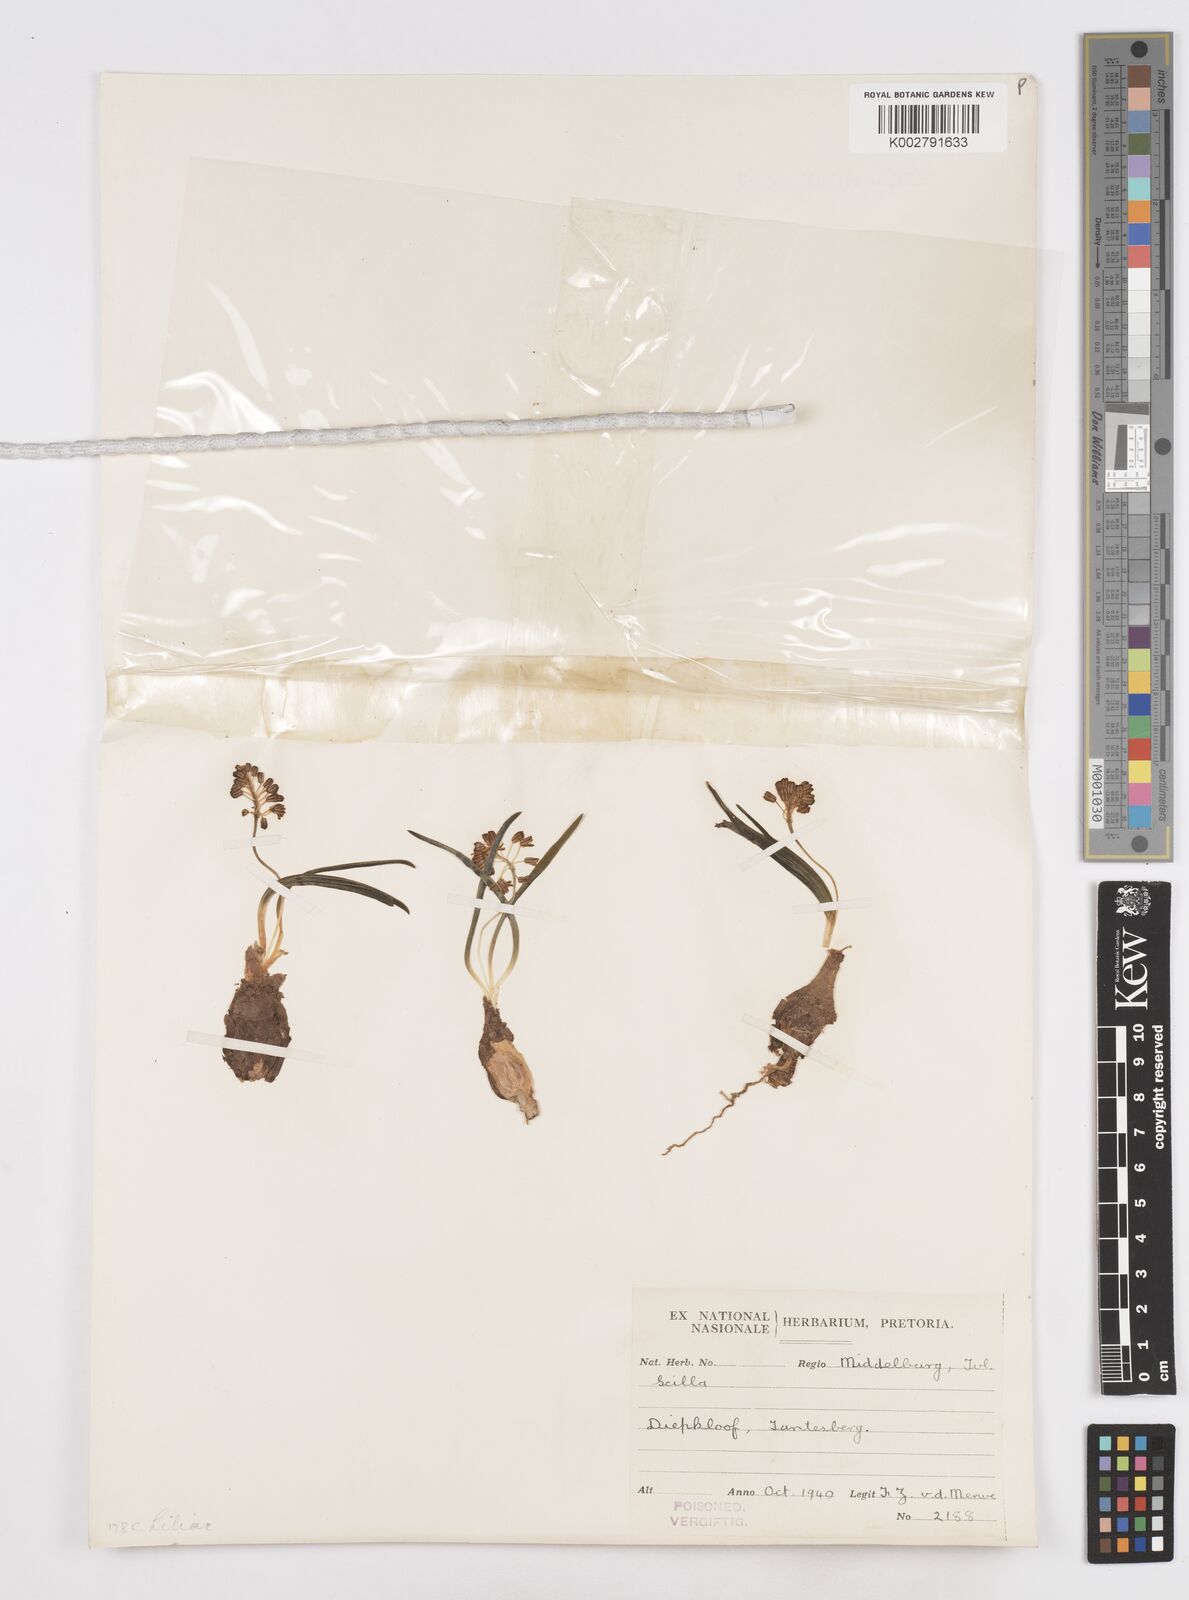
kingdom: Plantae
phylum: Tracheophyta
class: Liliopsida
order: Asparagales
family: Asparagaceae
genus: Scilla
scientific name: Scilla
